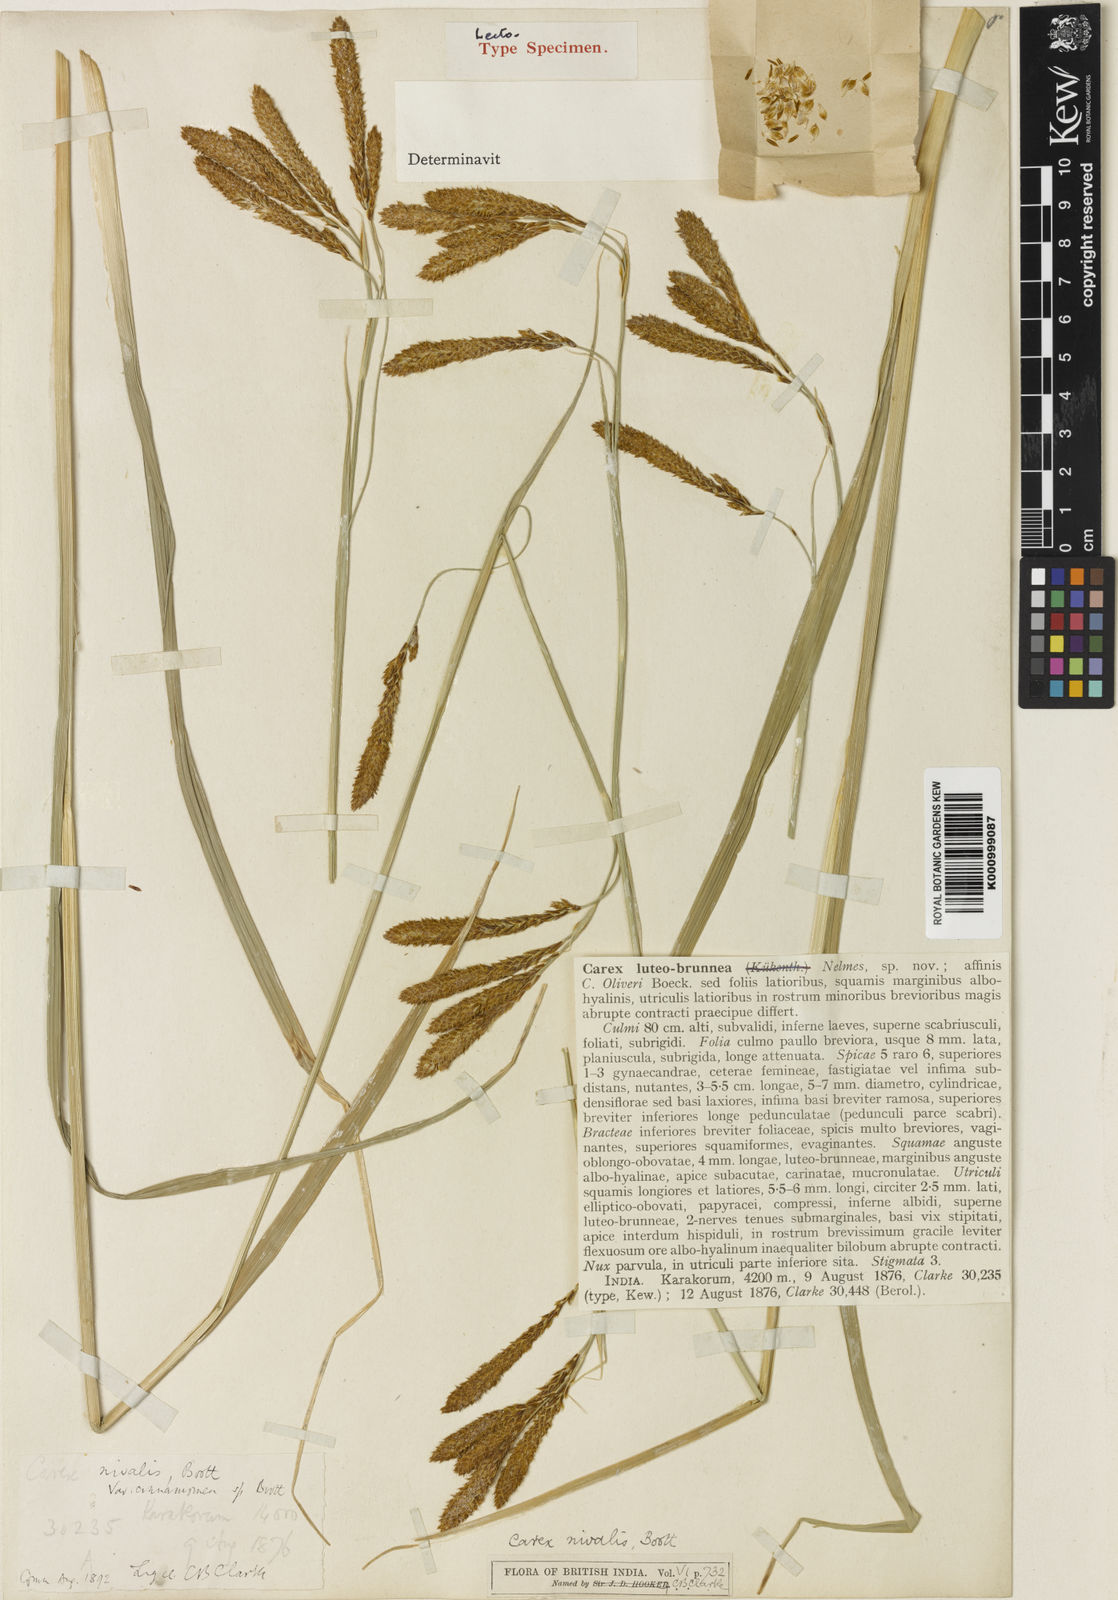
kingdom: Plantae
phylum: Tracheophyta
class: Liliopsida
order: Poales
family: Cyperaceae
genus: Carex
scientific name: Carex nivalis
